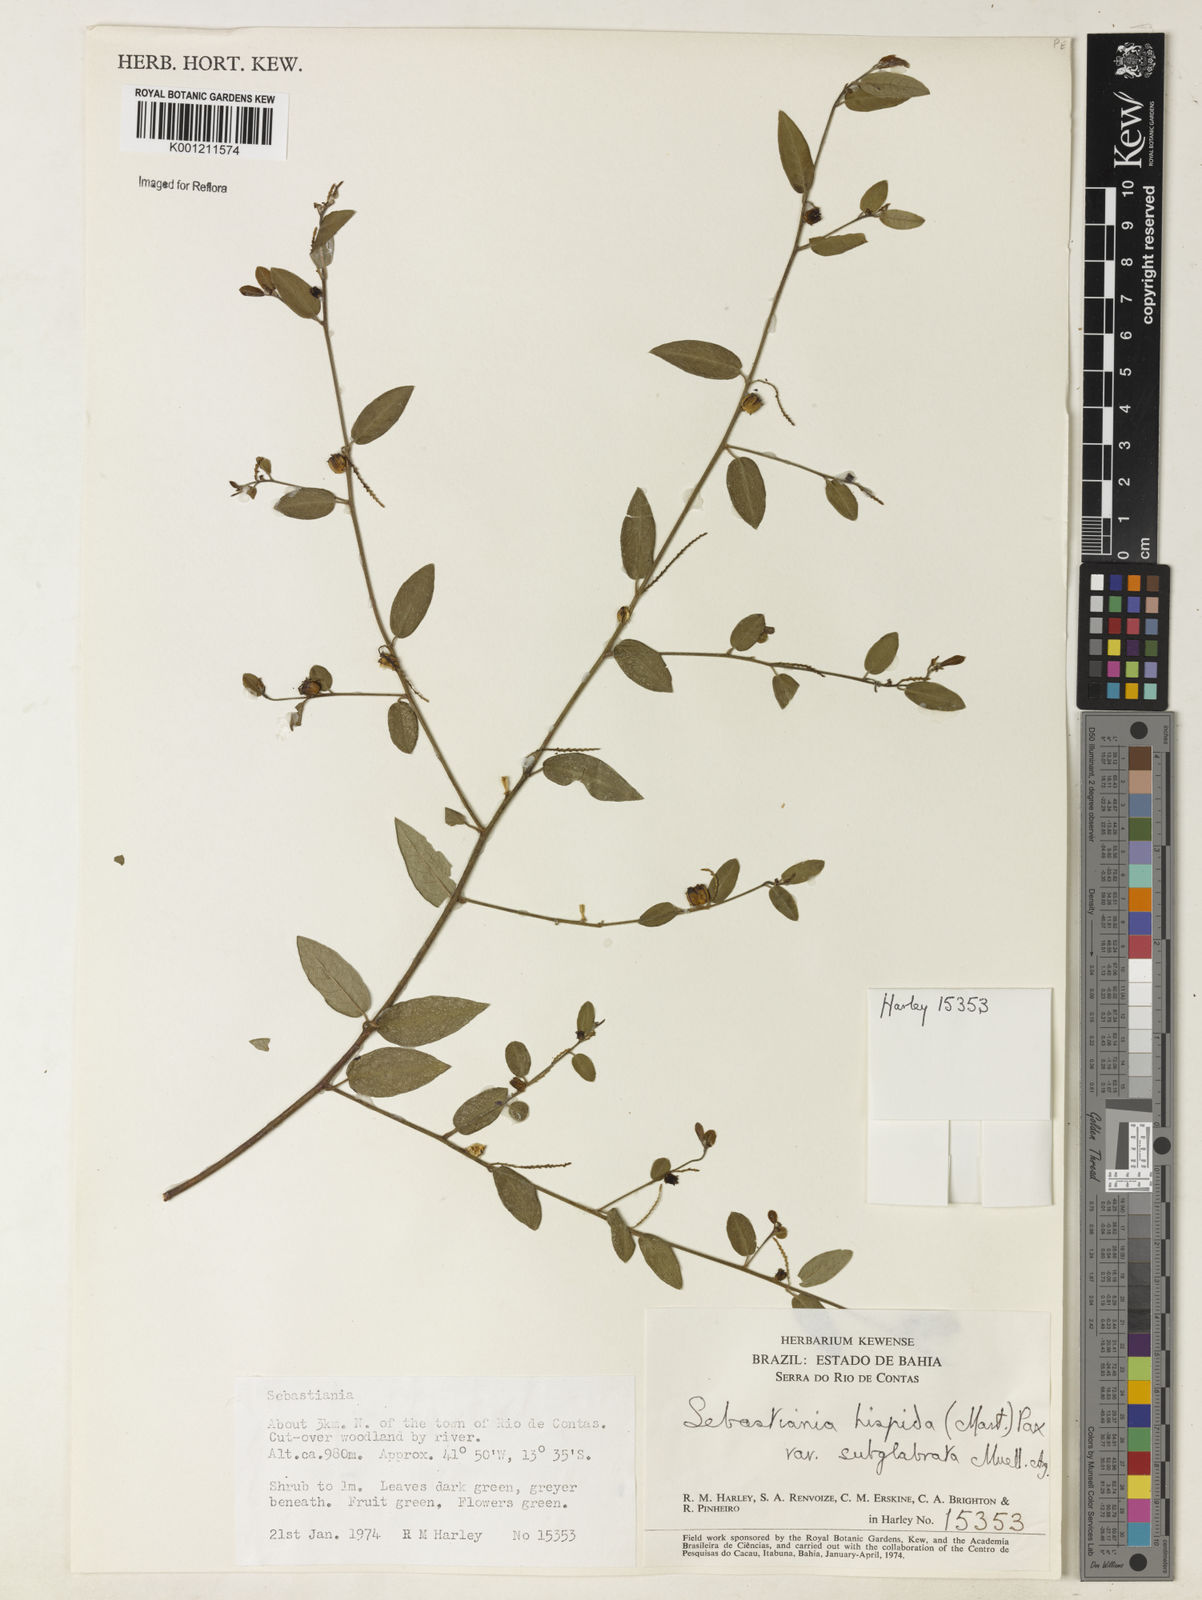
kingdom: Plantae
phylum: Tracheophyta
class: Magnoliopsida
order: Malpighiales
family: Euphorbiaceae
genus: Microstachys
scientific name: Microstachys hispida
